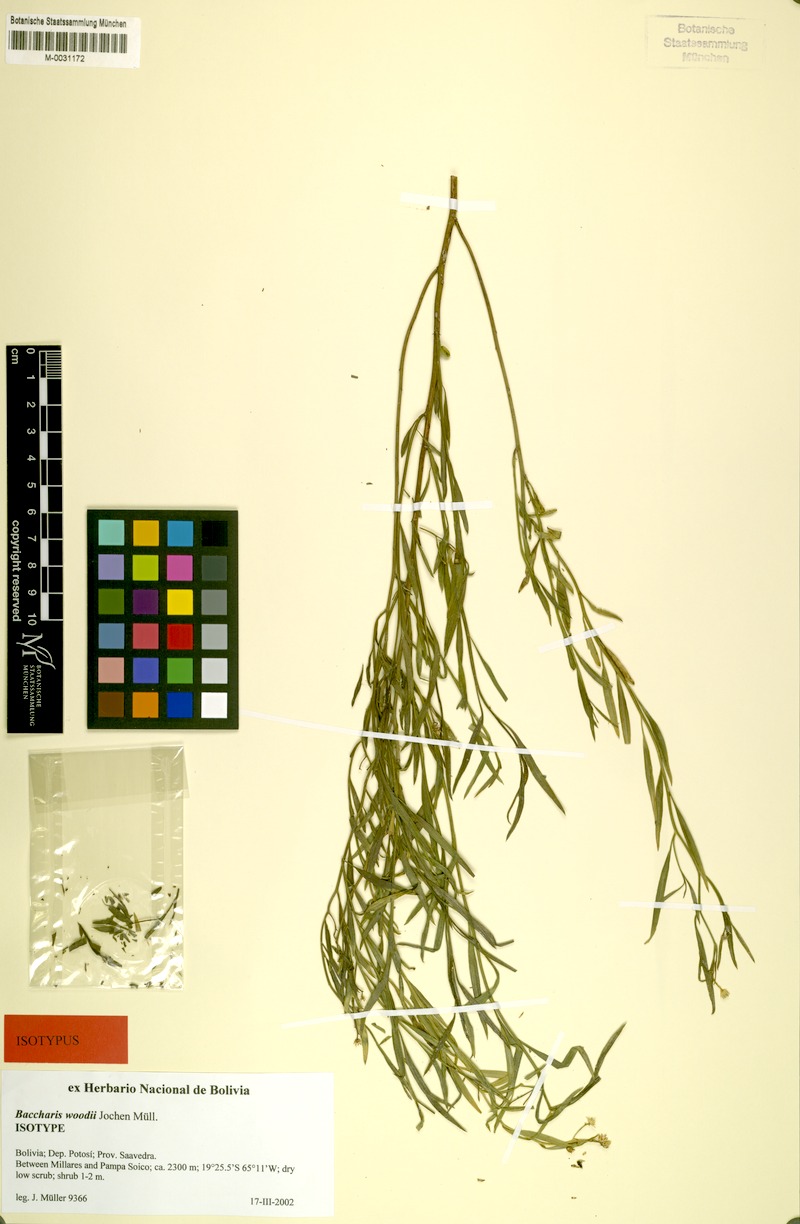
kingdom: Plantae
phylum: Tracheophyta
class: Magnoliopsida
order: Asterales
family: Asteraceae
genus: Baccharis
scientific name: Baccharis woodii
